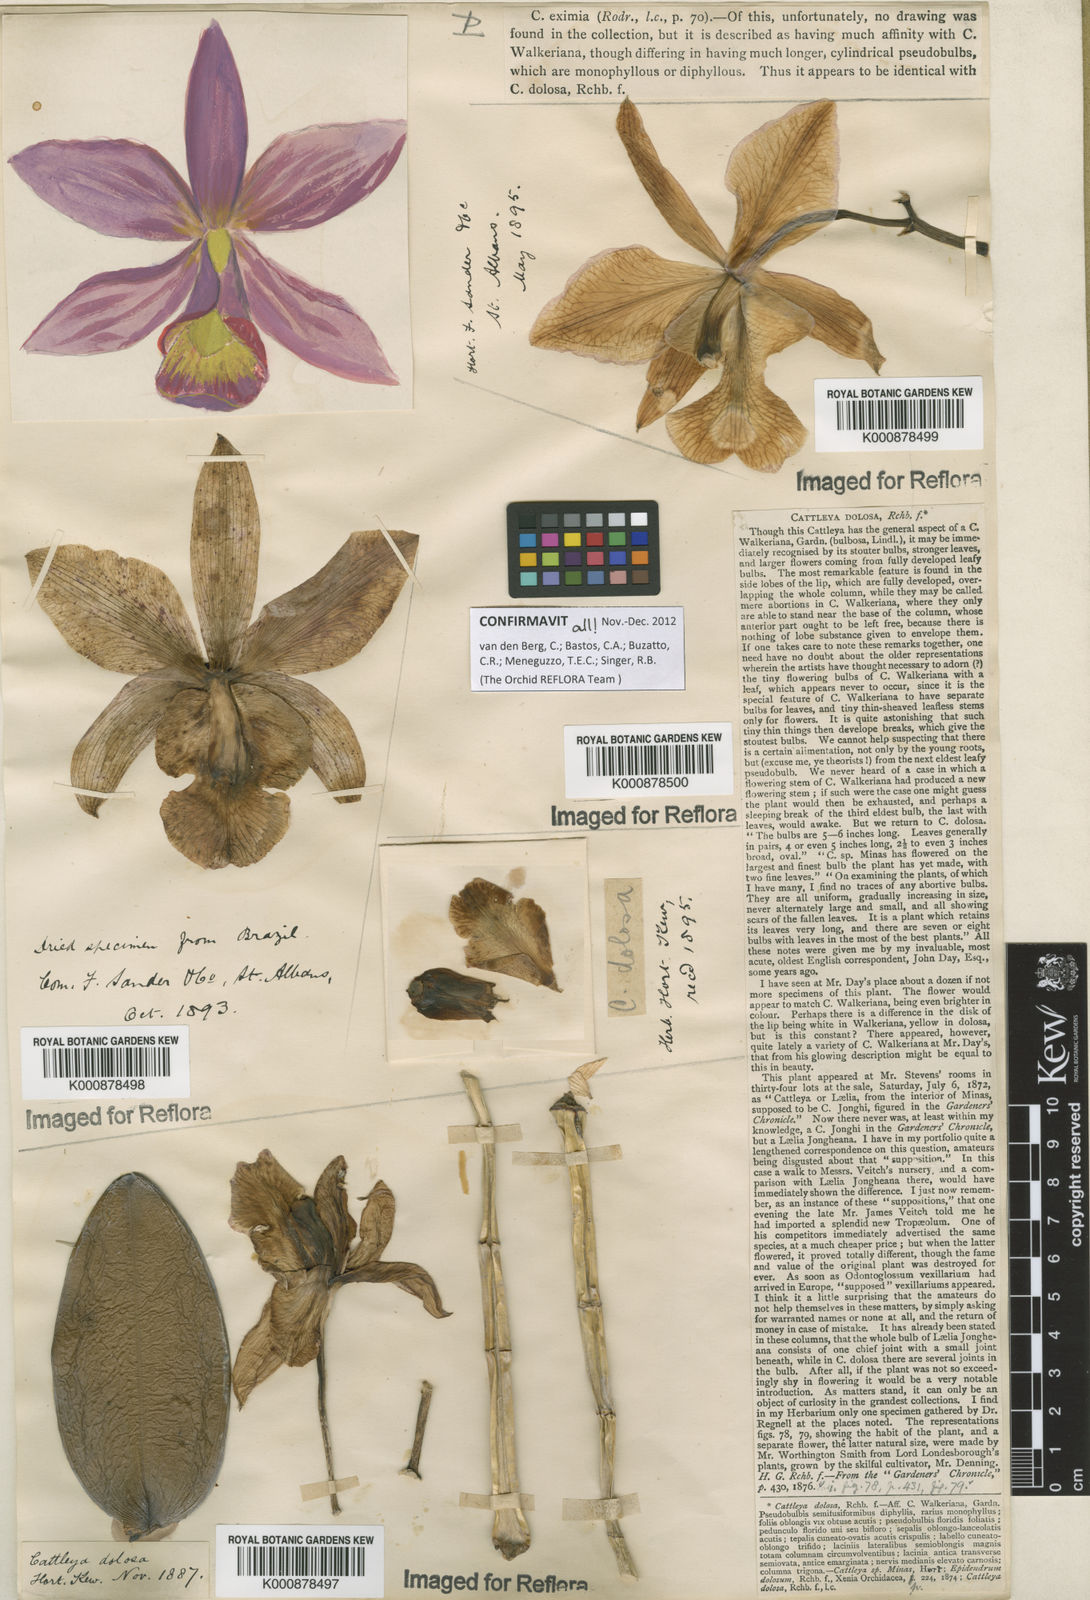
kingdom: Plantae
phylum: Tracheophyta
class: Liliopsida
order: Asparagales
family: Orchidaceae
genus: Cattleya
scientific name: Cattleya
